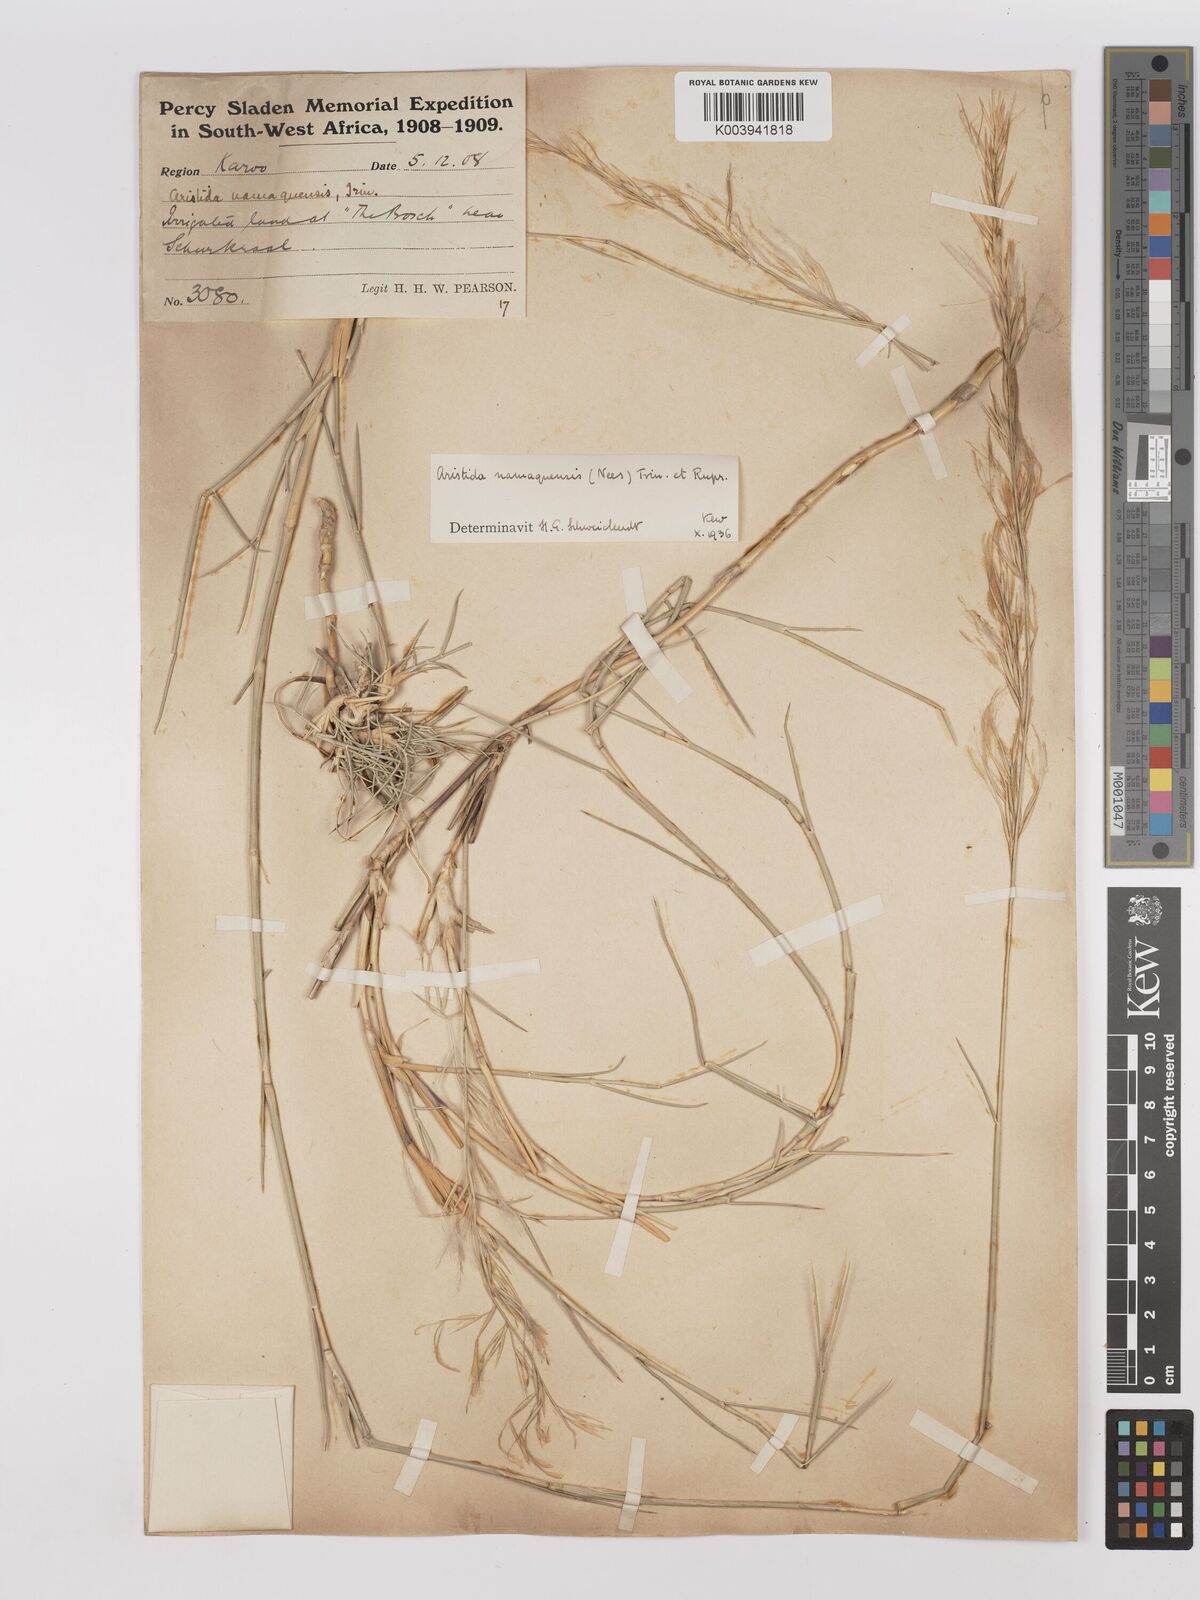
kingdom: Plantae
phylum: Tracheophyta
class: Liliopsida
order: Poales
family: Poaceae
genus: Stipagrostis
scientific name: Stipagrostis namaquensis
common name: River bushman grass
